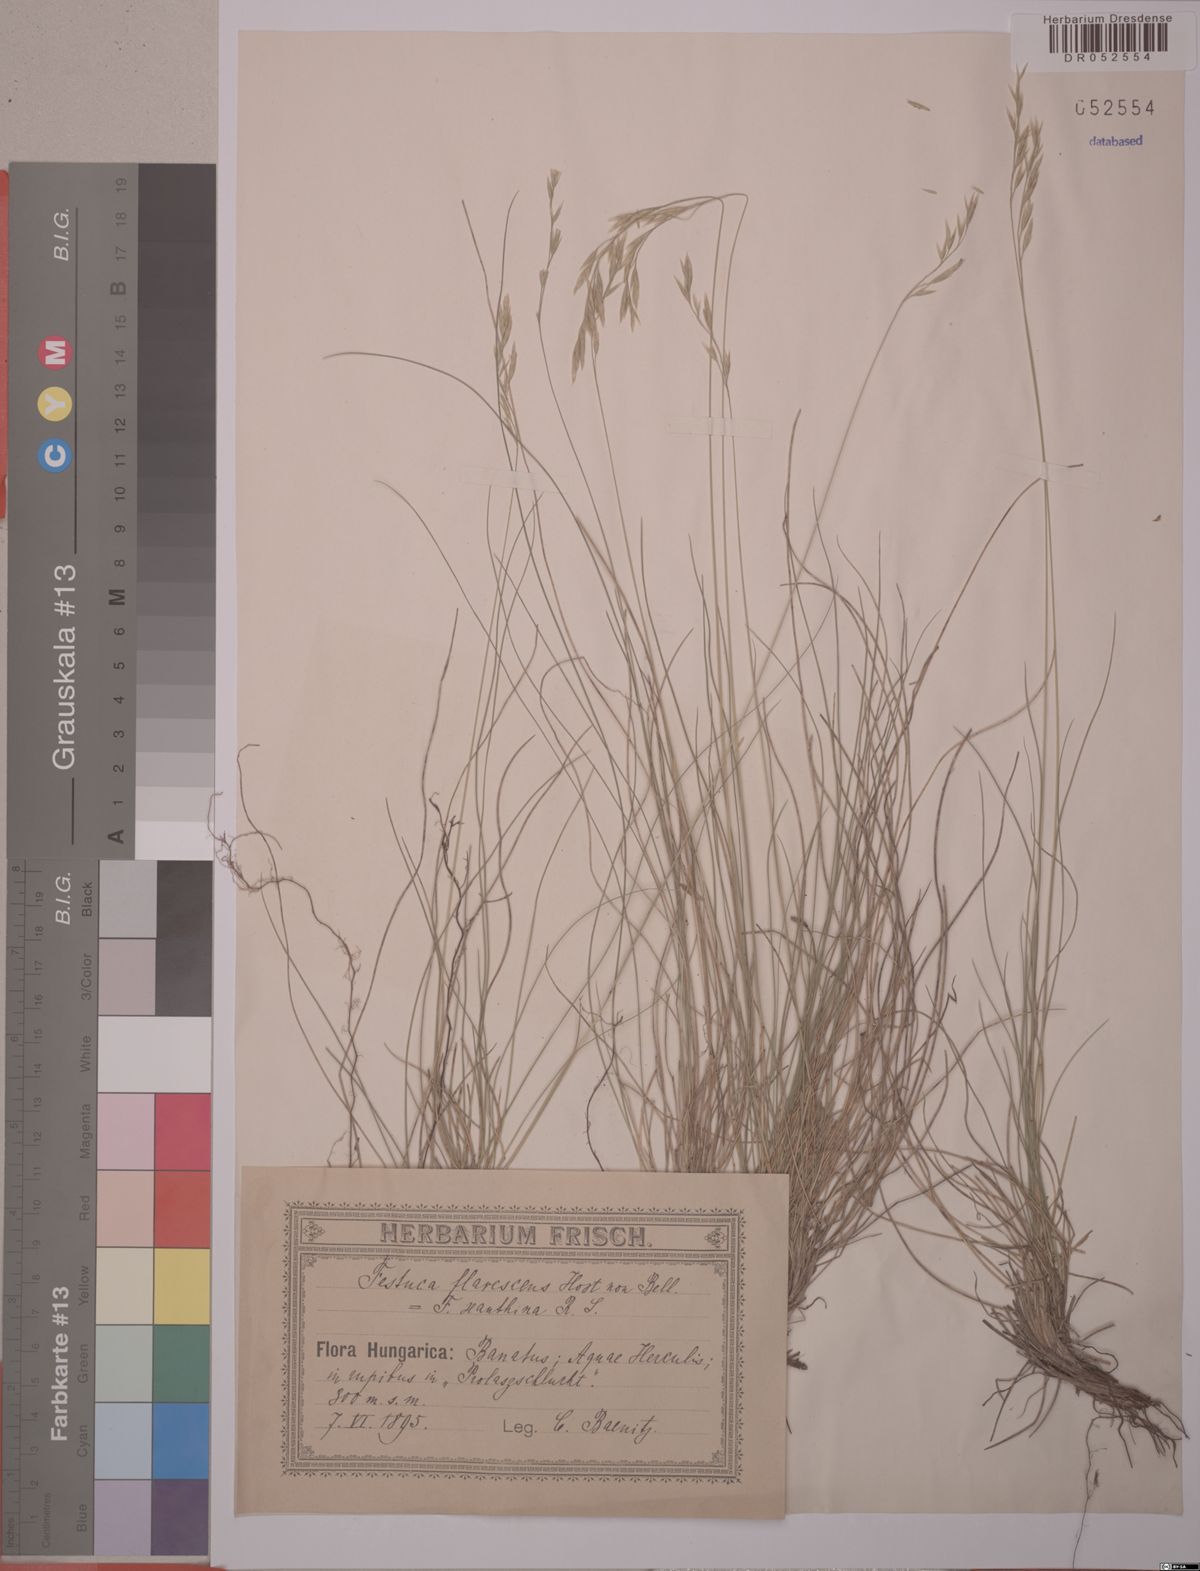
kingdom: Plantae
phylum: Tracheophyta
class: Liliopsida
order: Poales
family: Poaceae
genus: Festuca
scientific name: Festuca flavescens
